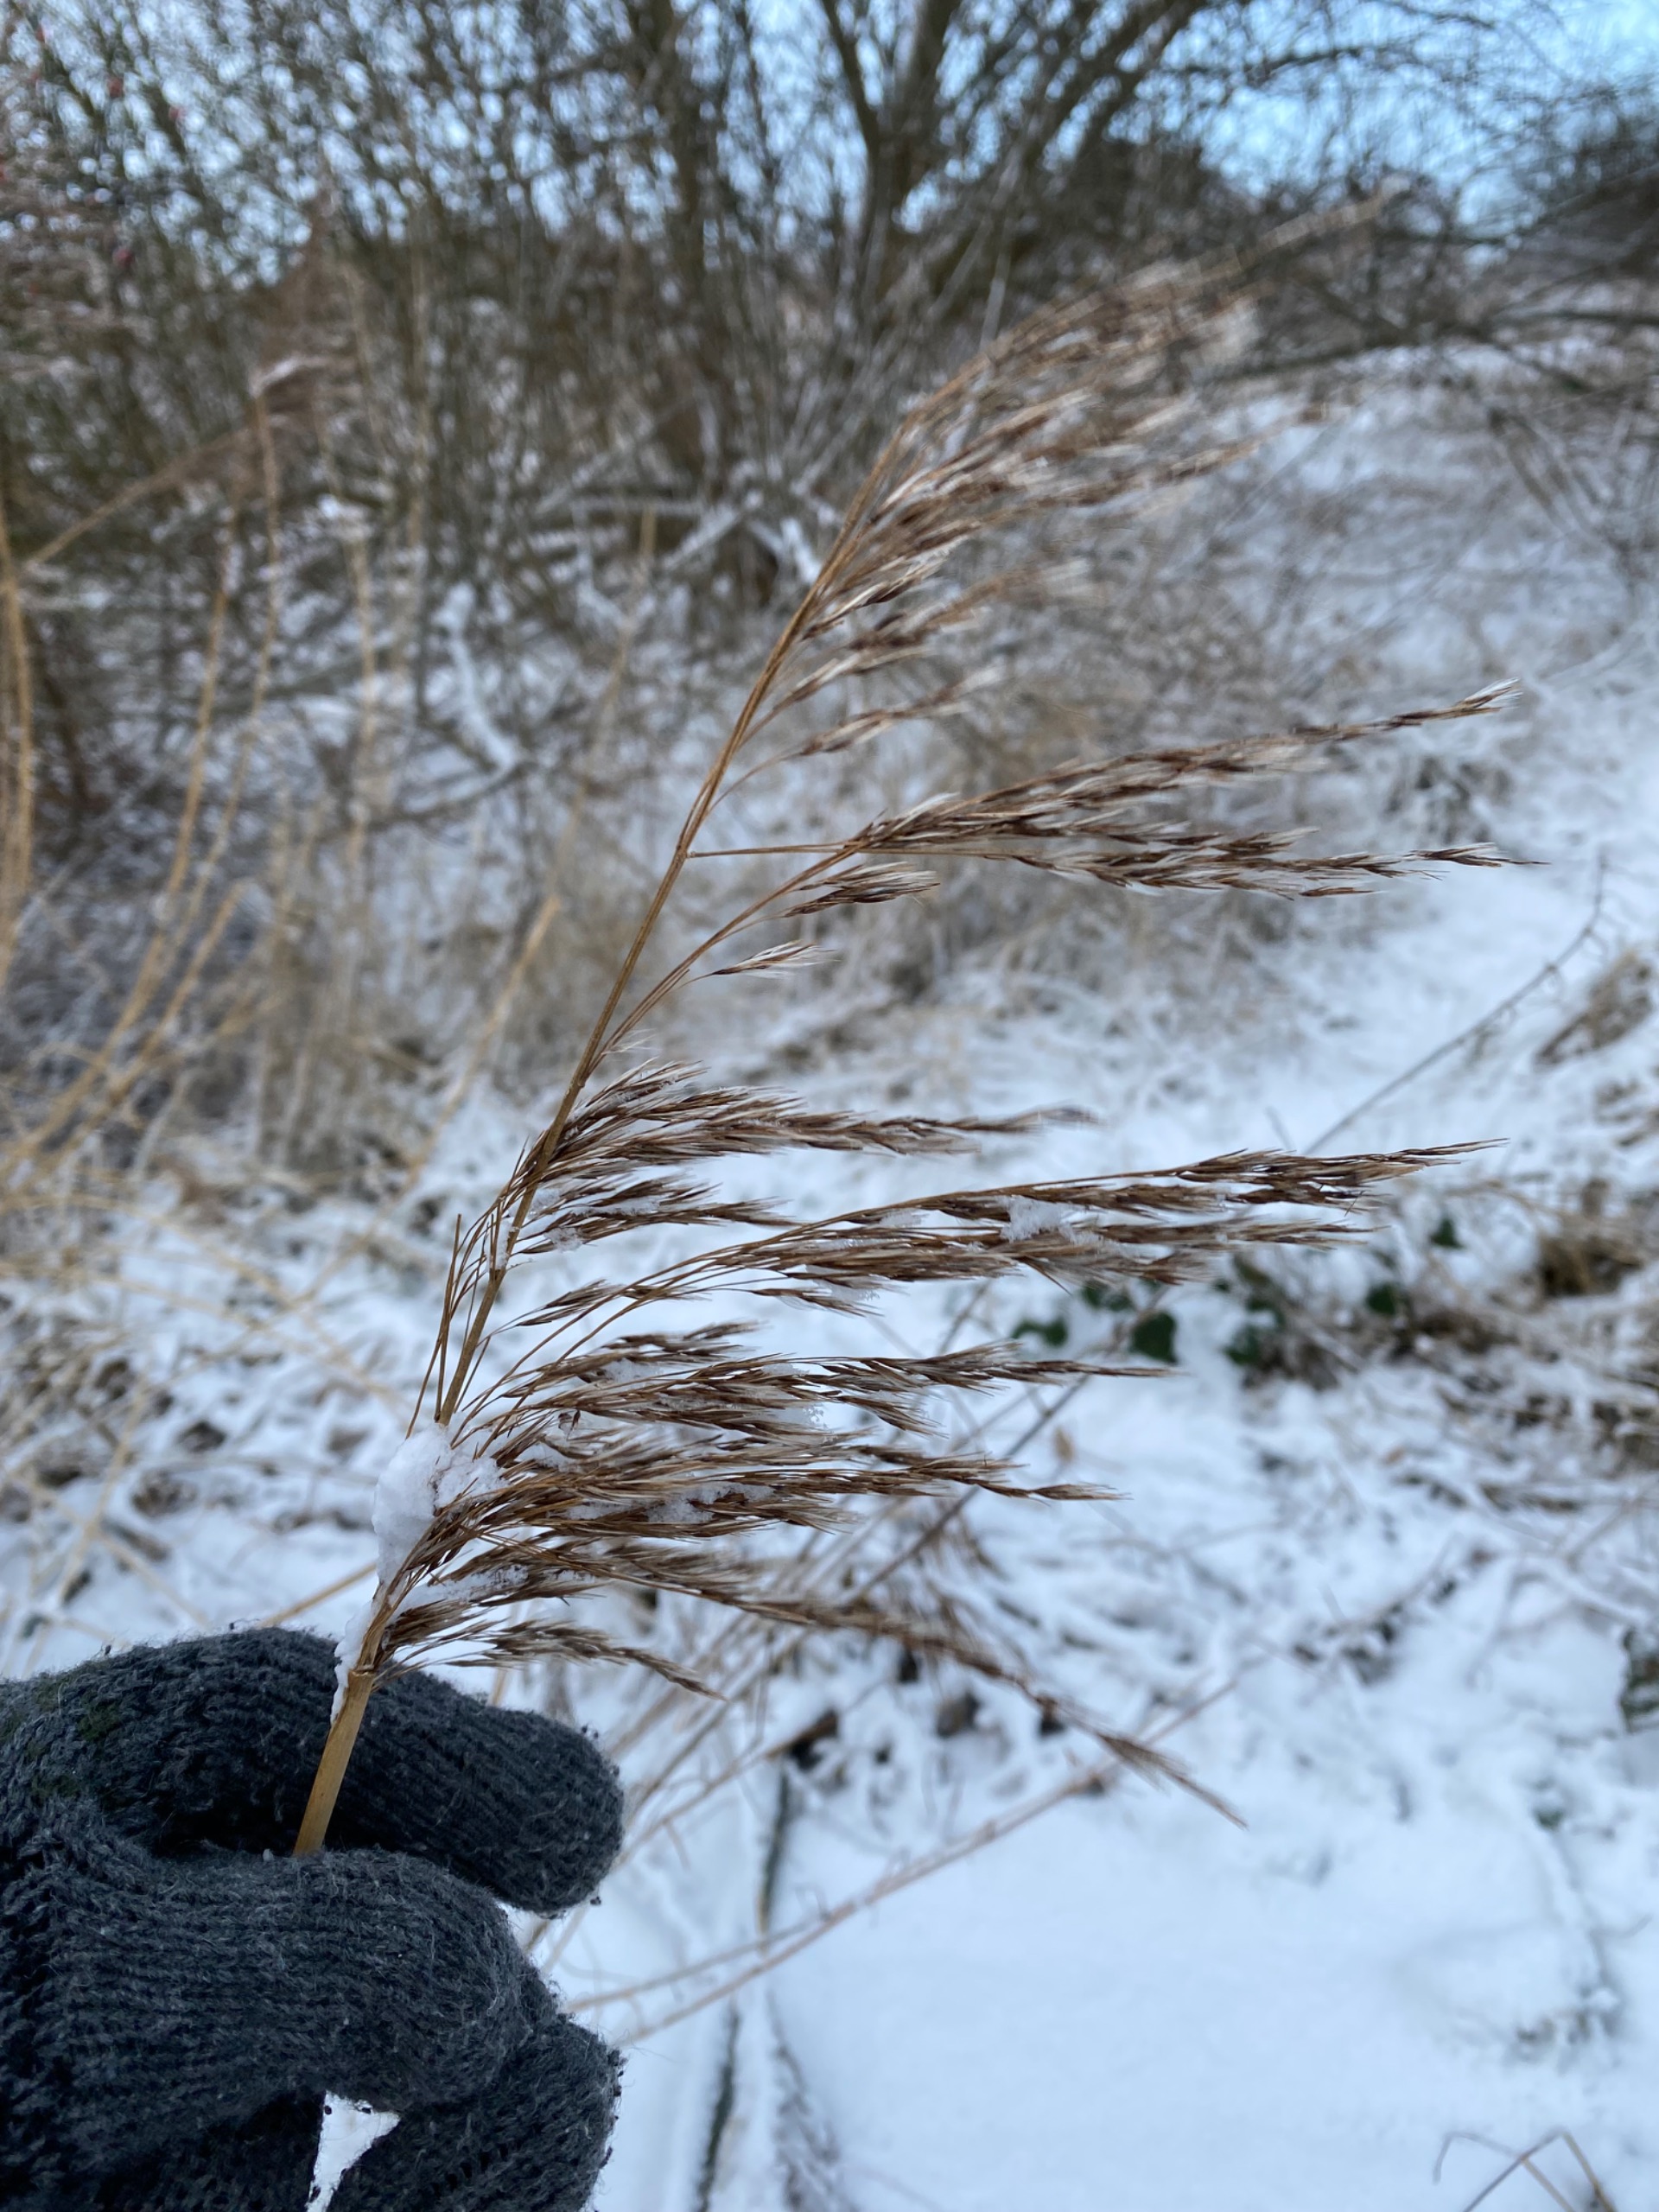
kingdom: Plantae
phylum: Tracheophyta
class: Liliopsida
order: Poales
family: Poaceae
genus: Phragmites
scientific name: Phragmites australis
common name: Tagrør
